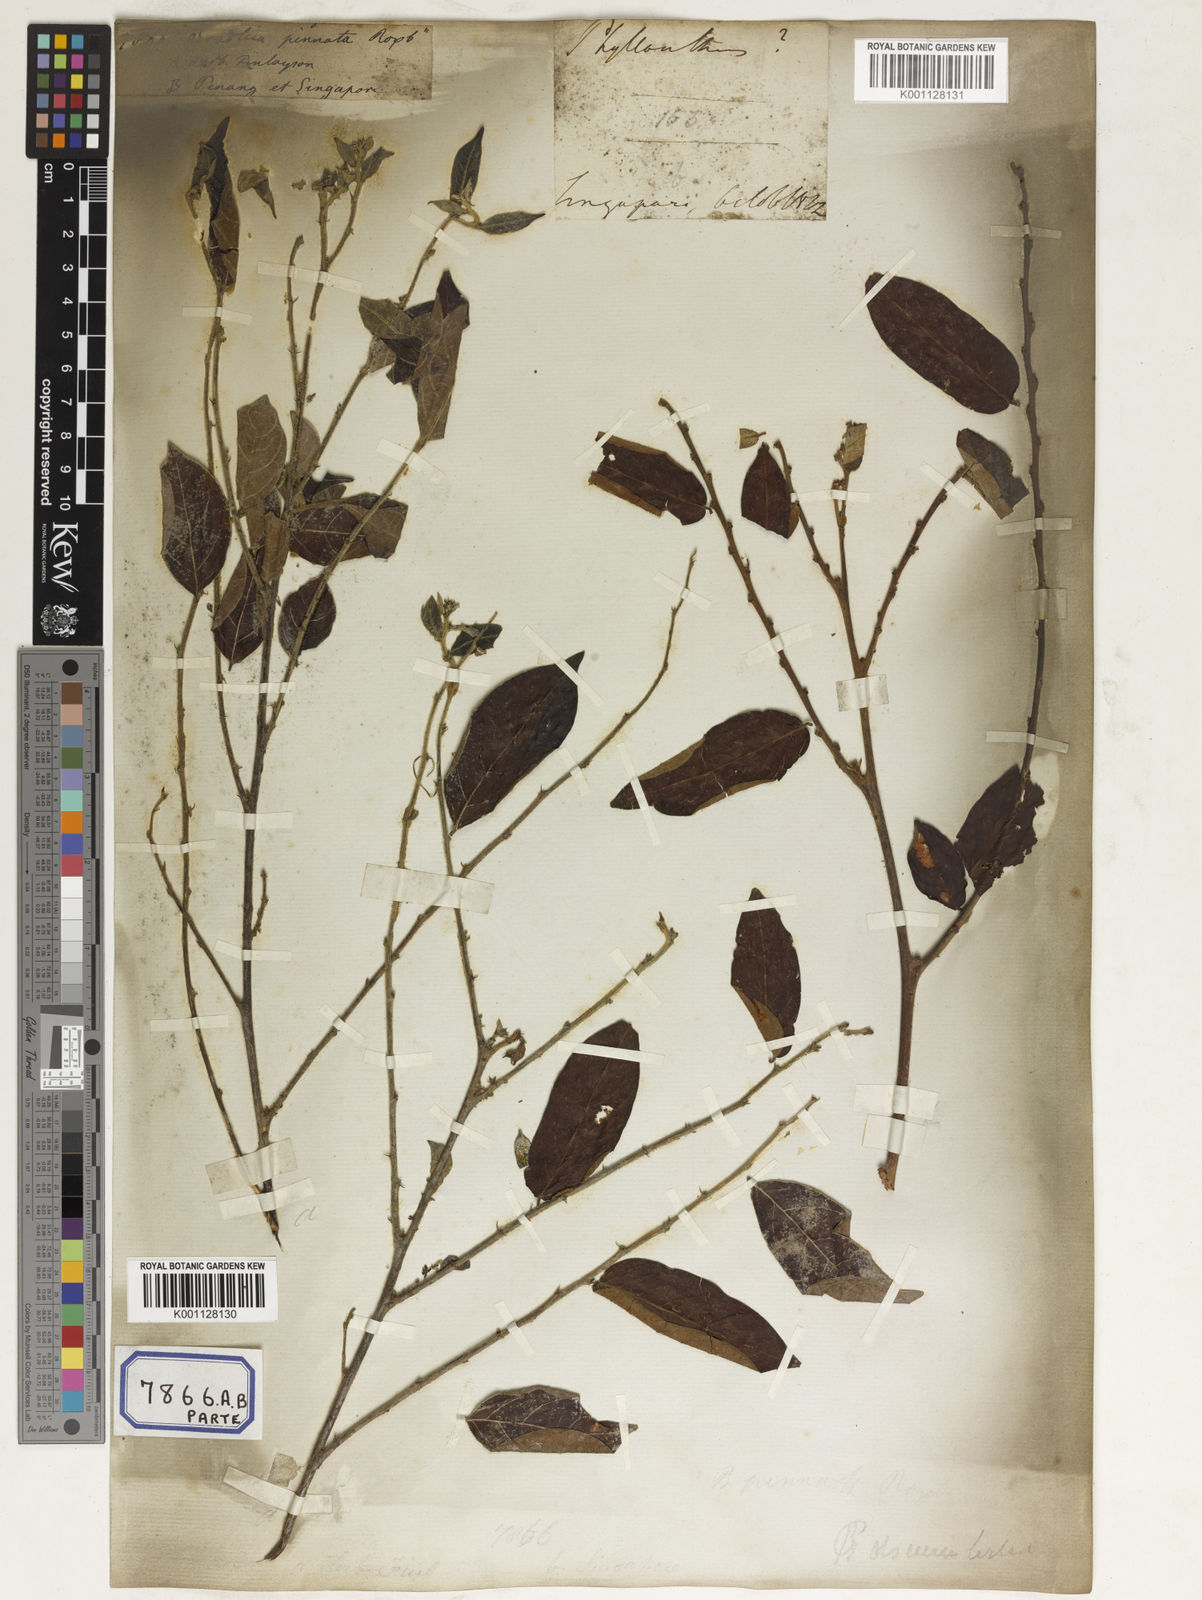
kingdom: Plantae
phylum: Tracheophyta
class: Magnoliopsida
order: Malpighiales
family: Euphorbiaceae
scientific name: Euphorbiaceae
